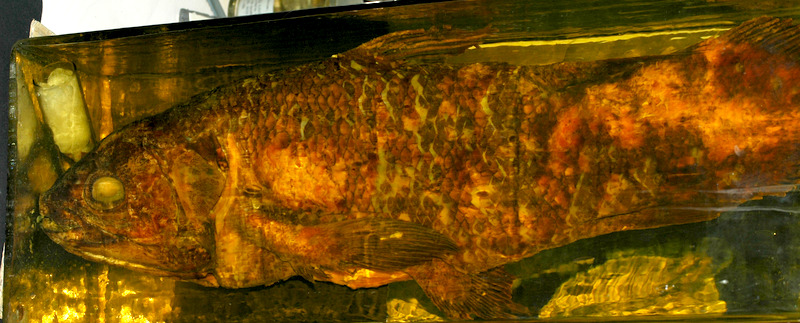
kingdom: Animalia
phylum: Chordata
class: Coelacanthi
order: Coelacanthiformes
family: Latimeriidae
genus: Latimeria
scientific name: Latimeria chalumnae
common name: Coelacanth
